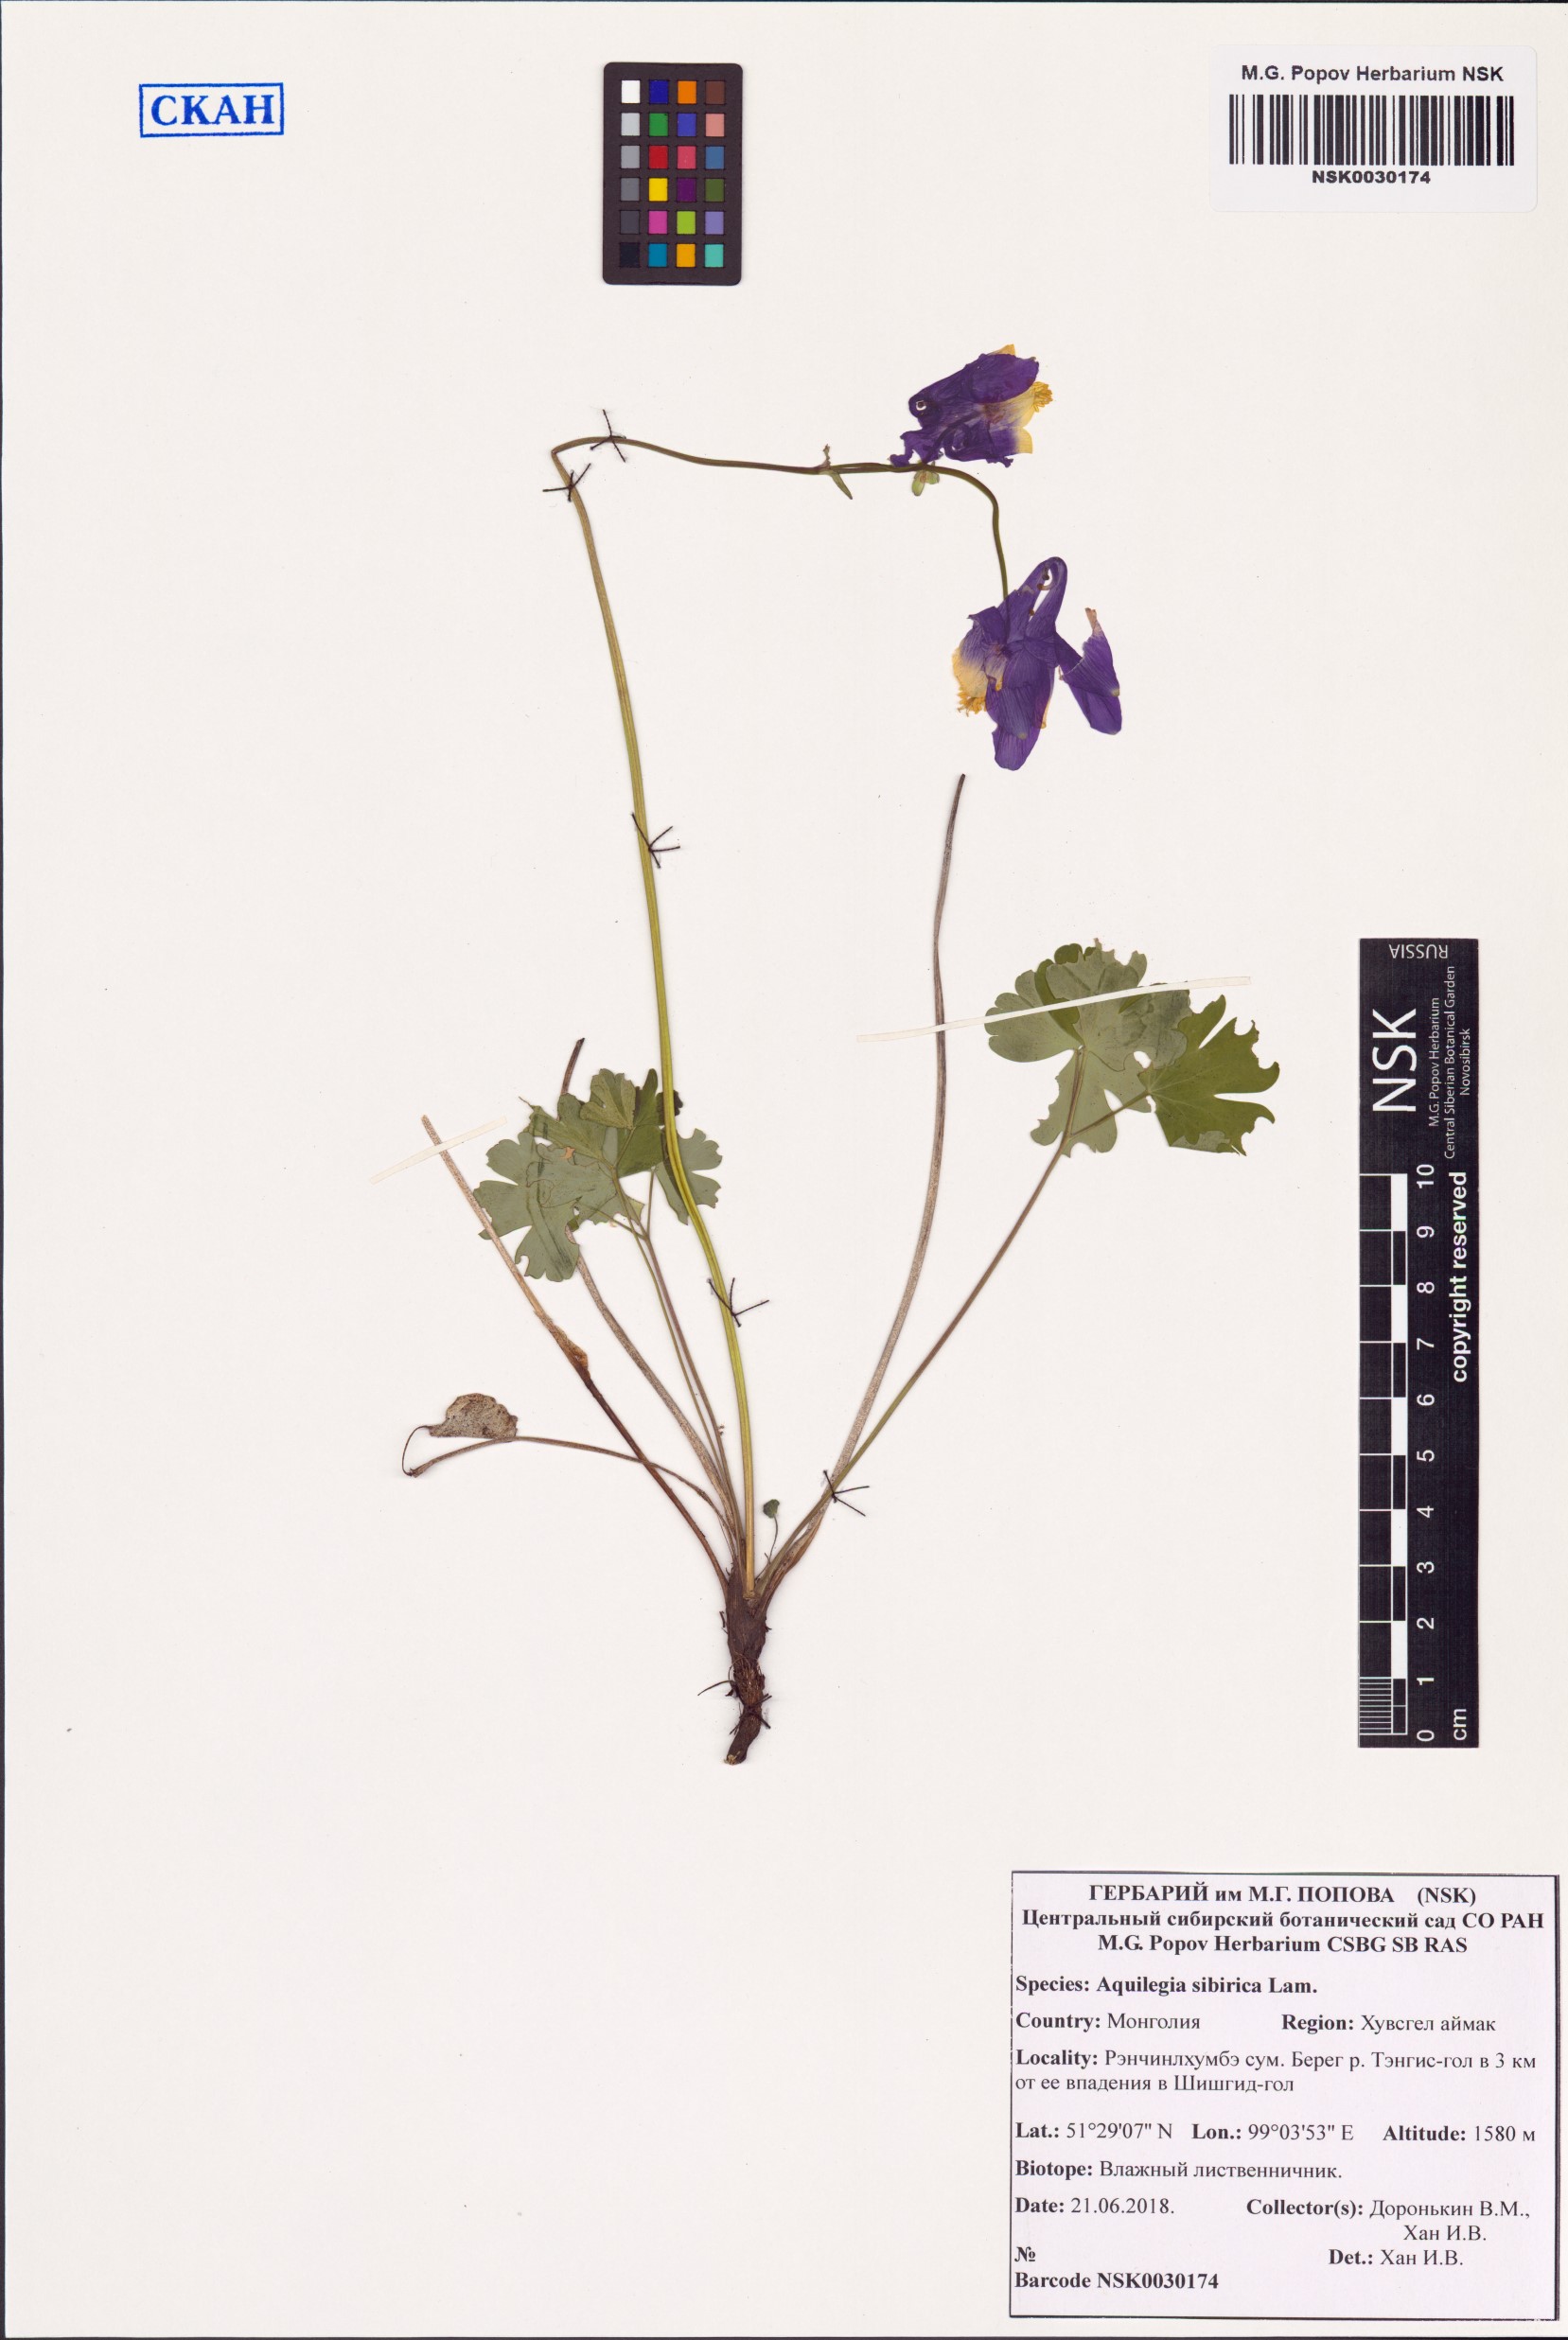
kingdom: Plantae
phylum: Tracheophyta
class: Magnoliopsida
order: Ranunculales
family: Ranunculaceae
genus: Aquilegia
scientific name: Aquilegia sibirica
